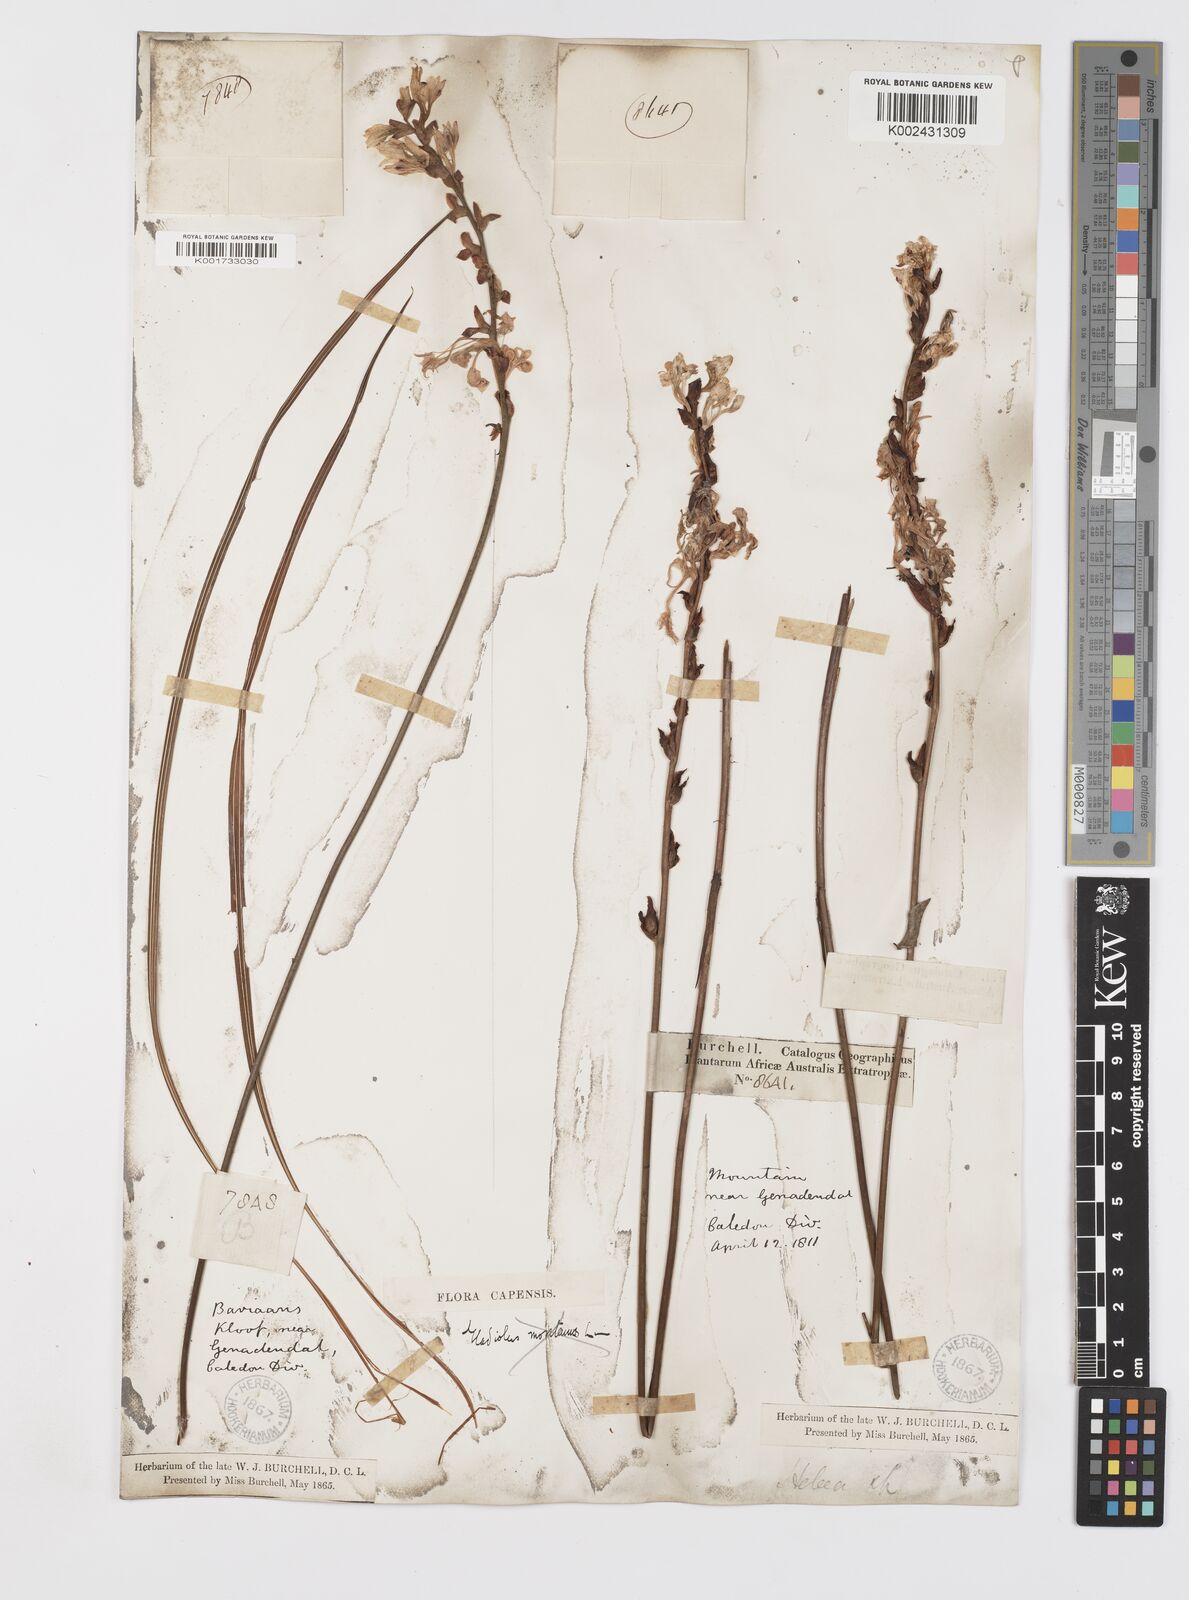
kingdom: Plantae
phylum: Tracheophyta
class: Liliopsida
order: Asparagales
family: Iridaceae
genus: Tritoniopsis
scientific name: Tritoniopsis lata
